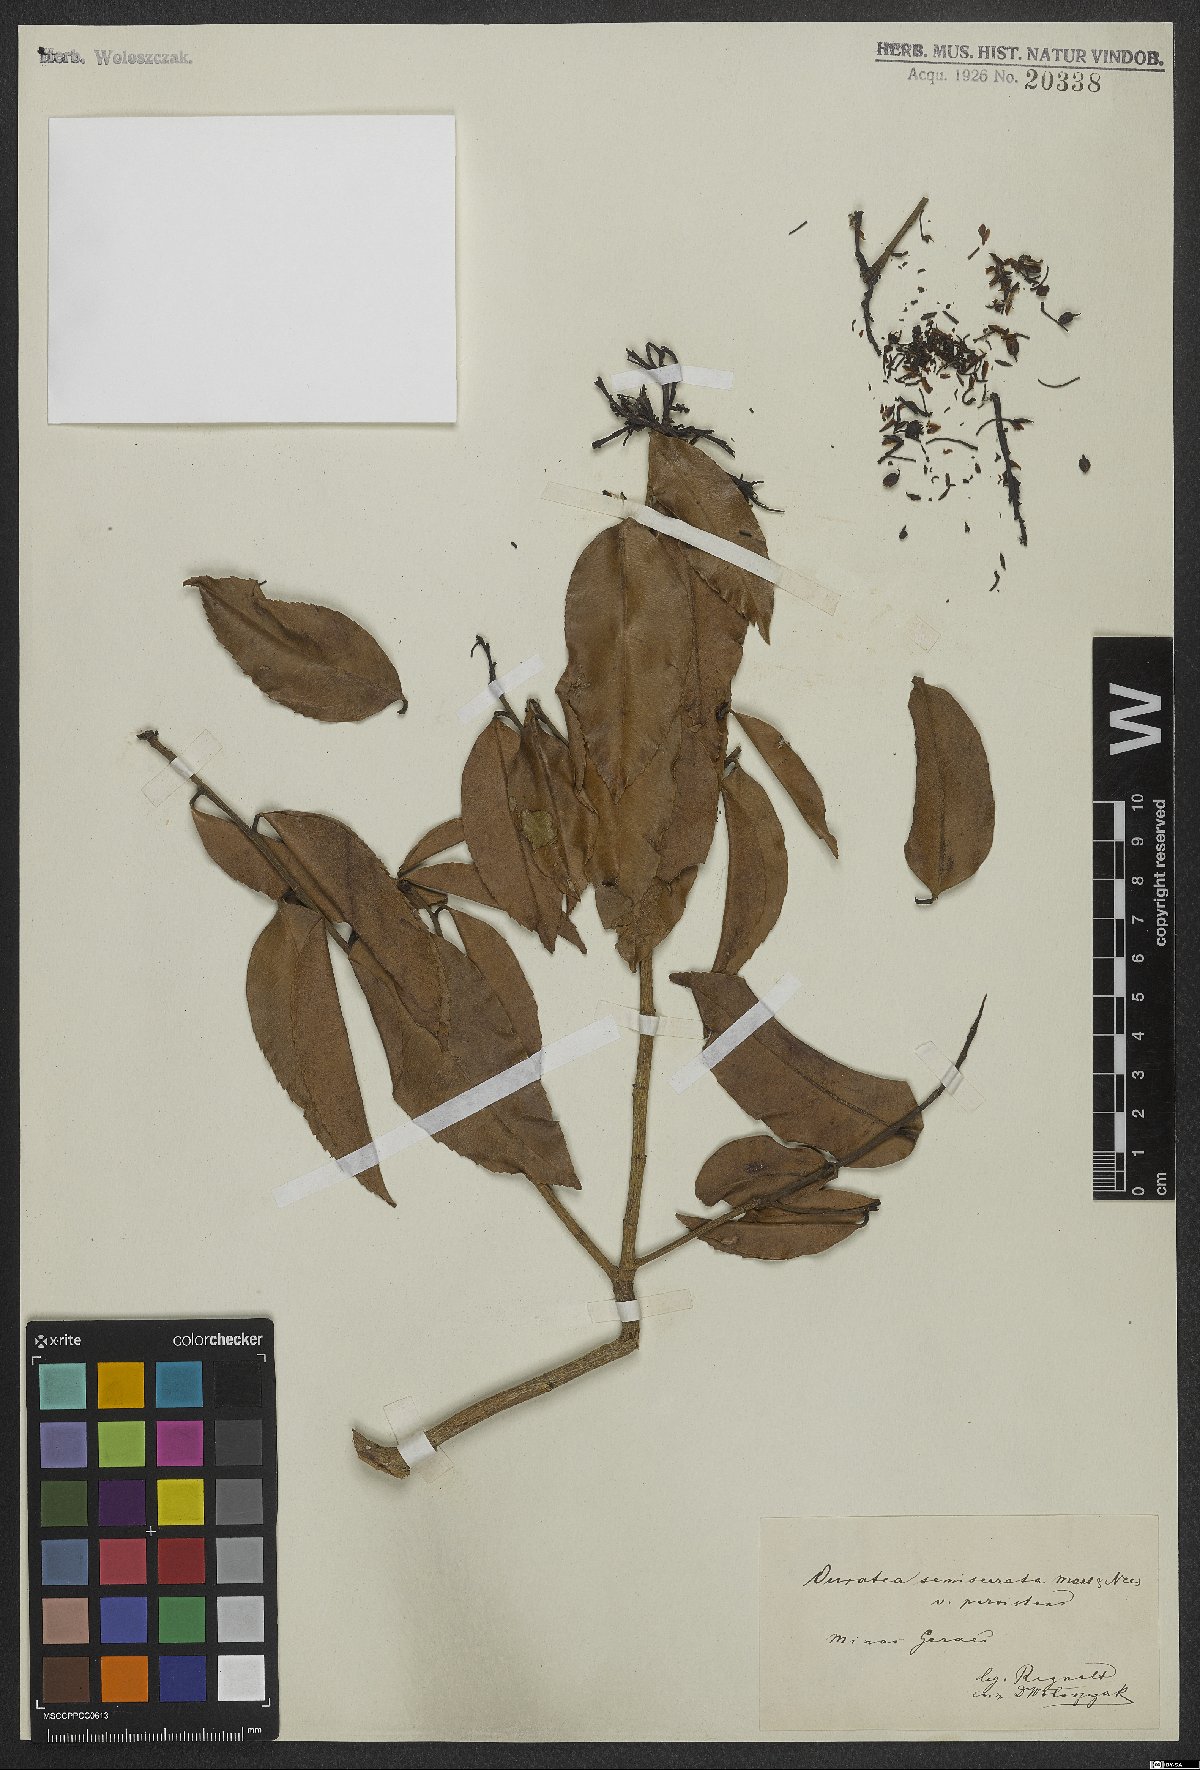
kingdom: Plantae
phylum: Tracheophyta
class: Magnoliopsida
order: Malpighiales
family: Ochnaceae
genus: Ouratea
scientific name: Ouratea semiserrata
